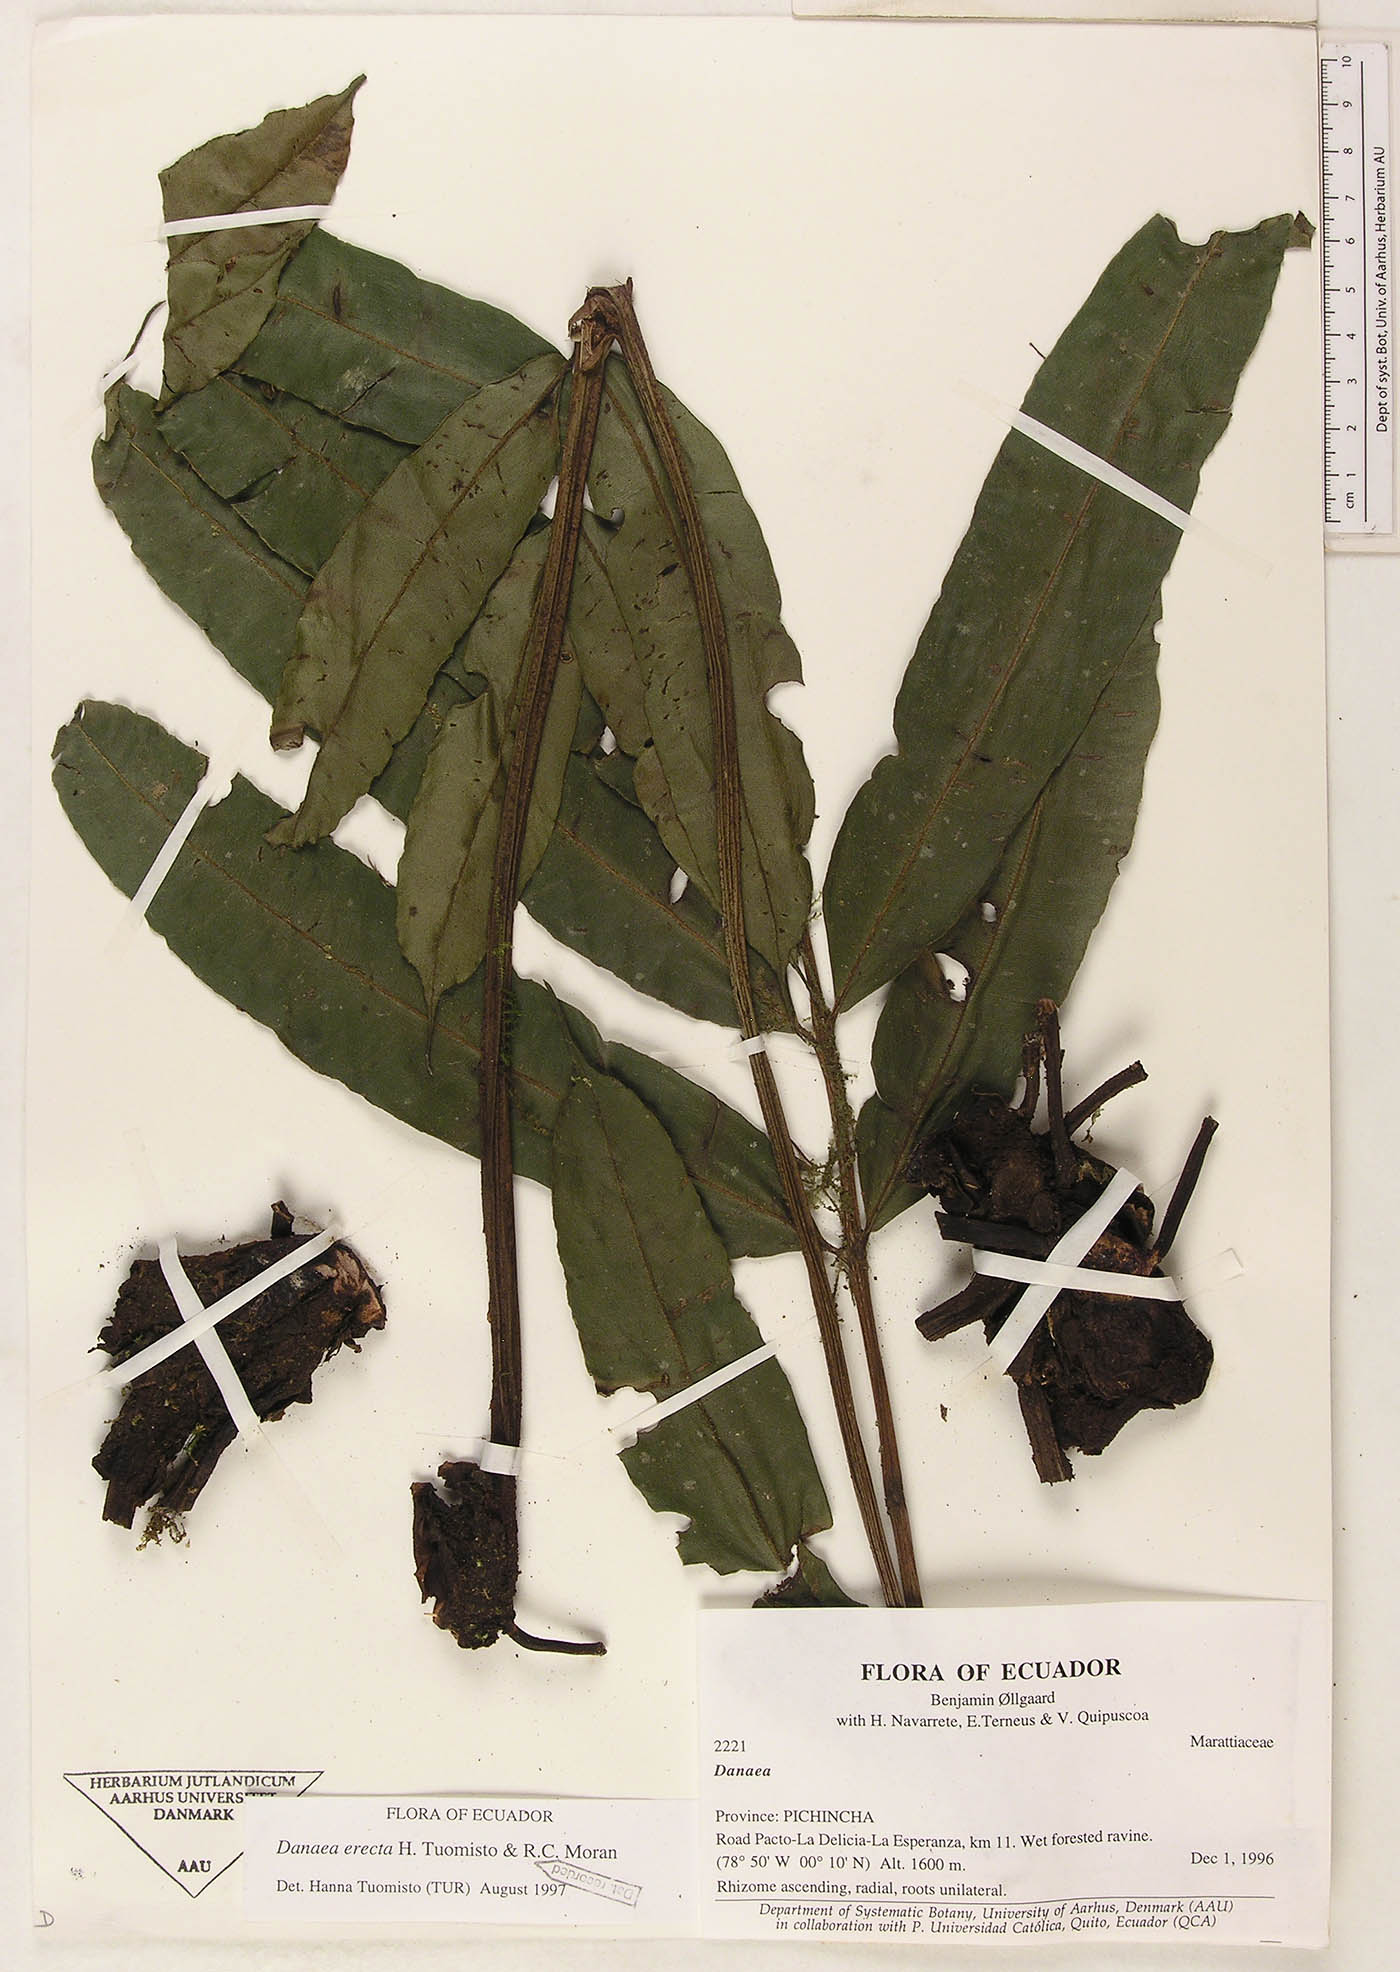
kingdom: Plantae
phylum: Tracheophyta
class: Polypodiopsida
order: Marattiales
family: Marattiaceae
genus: Danaea
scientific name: Danaea
